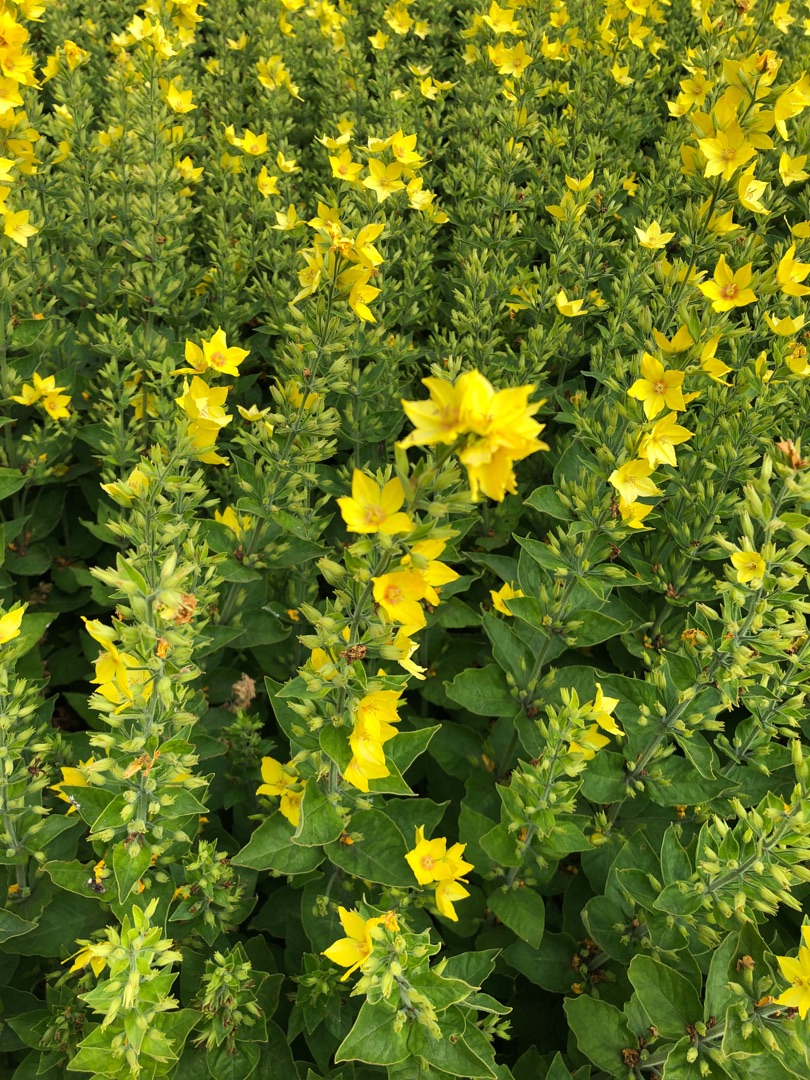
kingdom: Plantae
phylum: Tracheophyta
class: Magnoliopsida
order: Ericales
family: Primulaceae
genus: Lysimachia
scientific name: Lysimachia punctata
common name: Prikbladet fredløs
